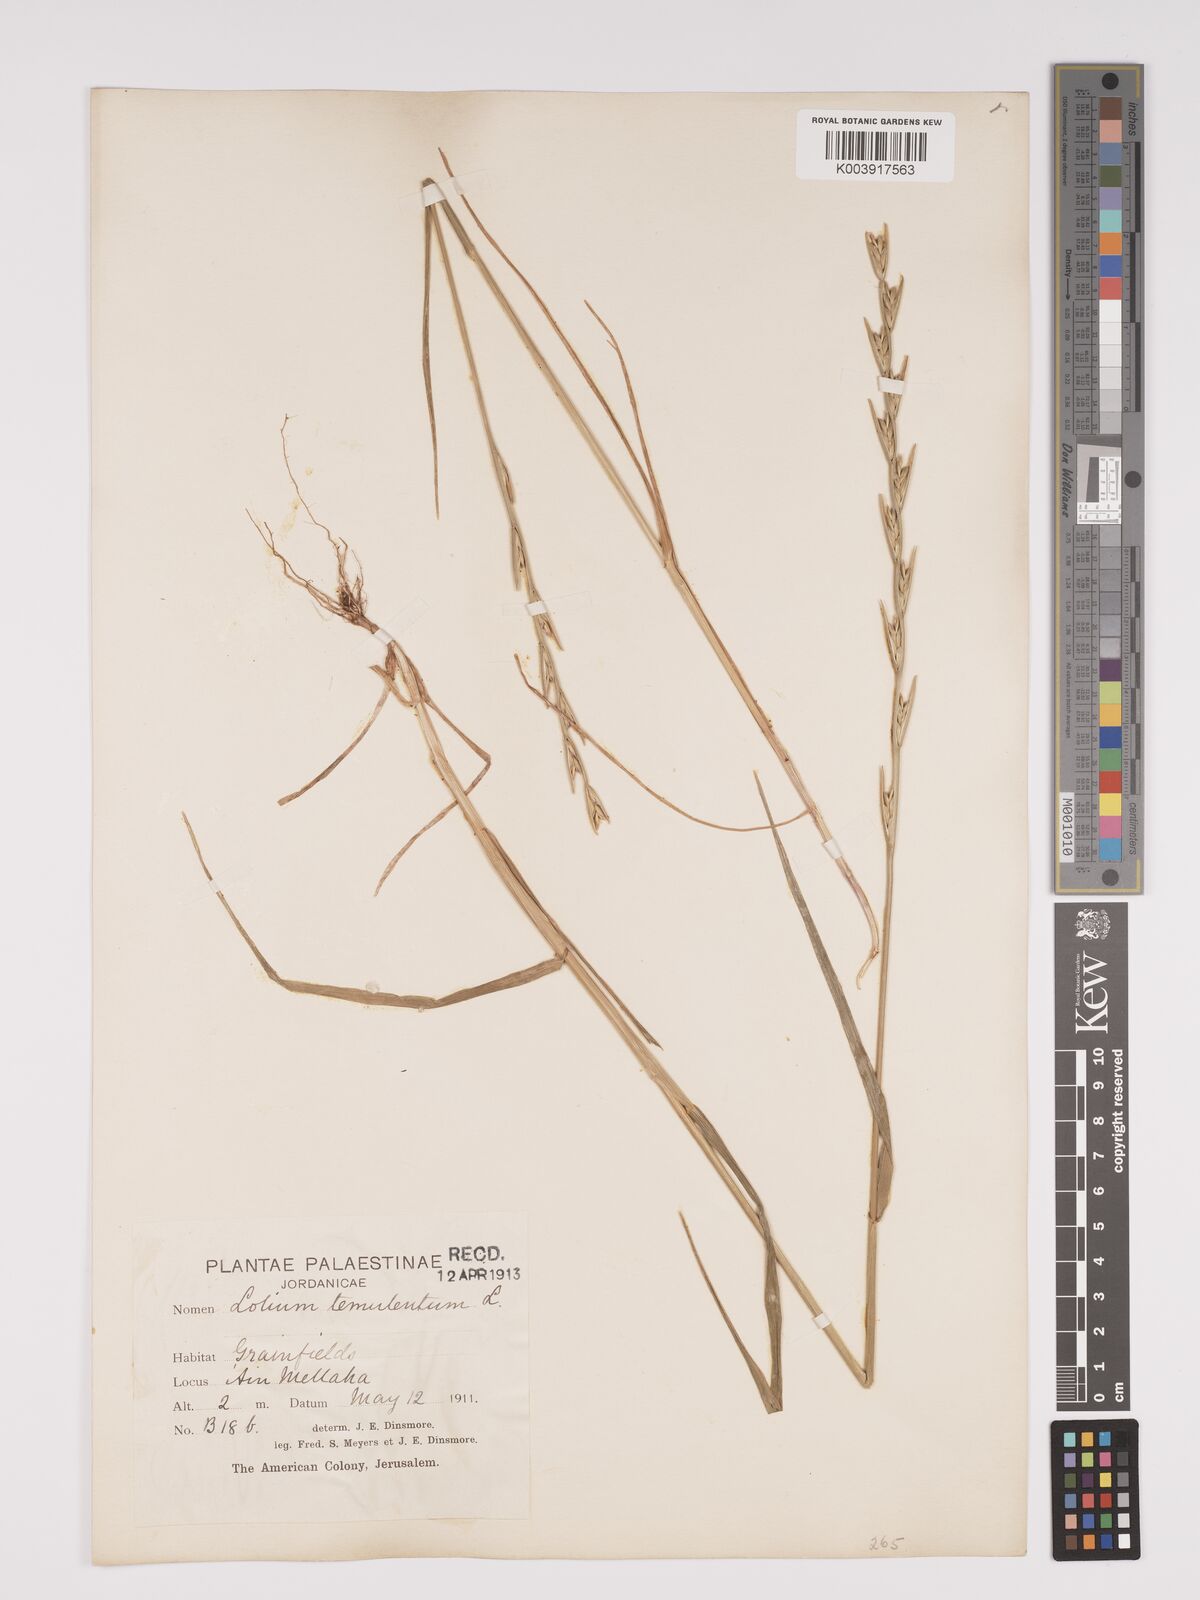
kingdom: Plantae
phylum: Tracheophyta
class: Liliopsida
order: Poales
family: Poaceae
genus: Lolium
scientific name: Lolium temulentum
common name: Darnel
